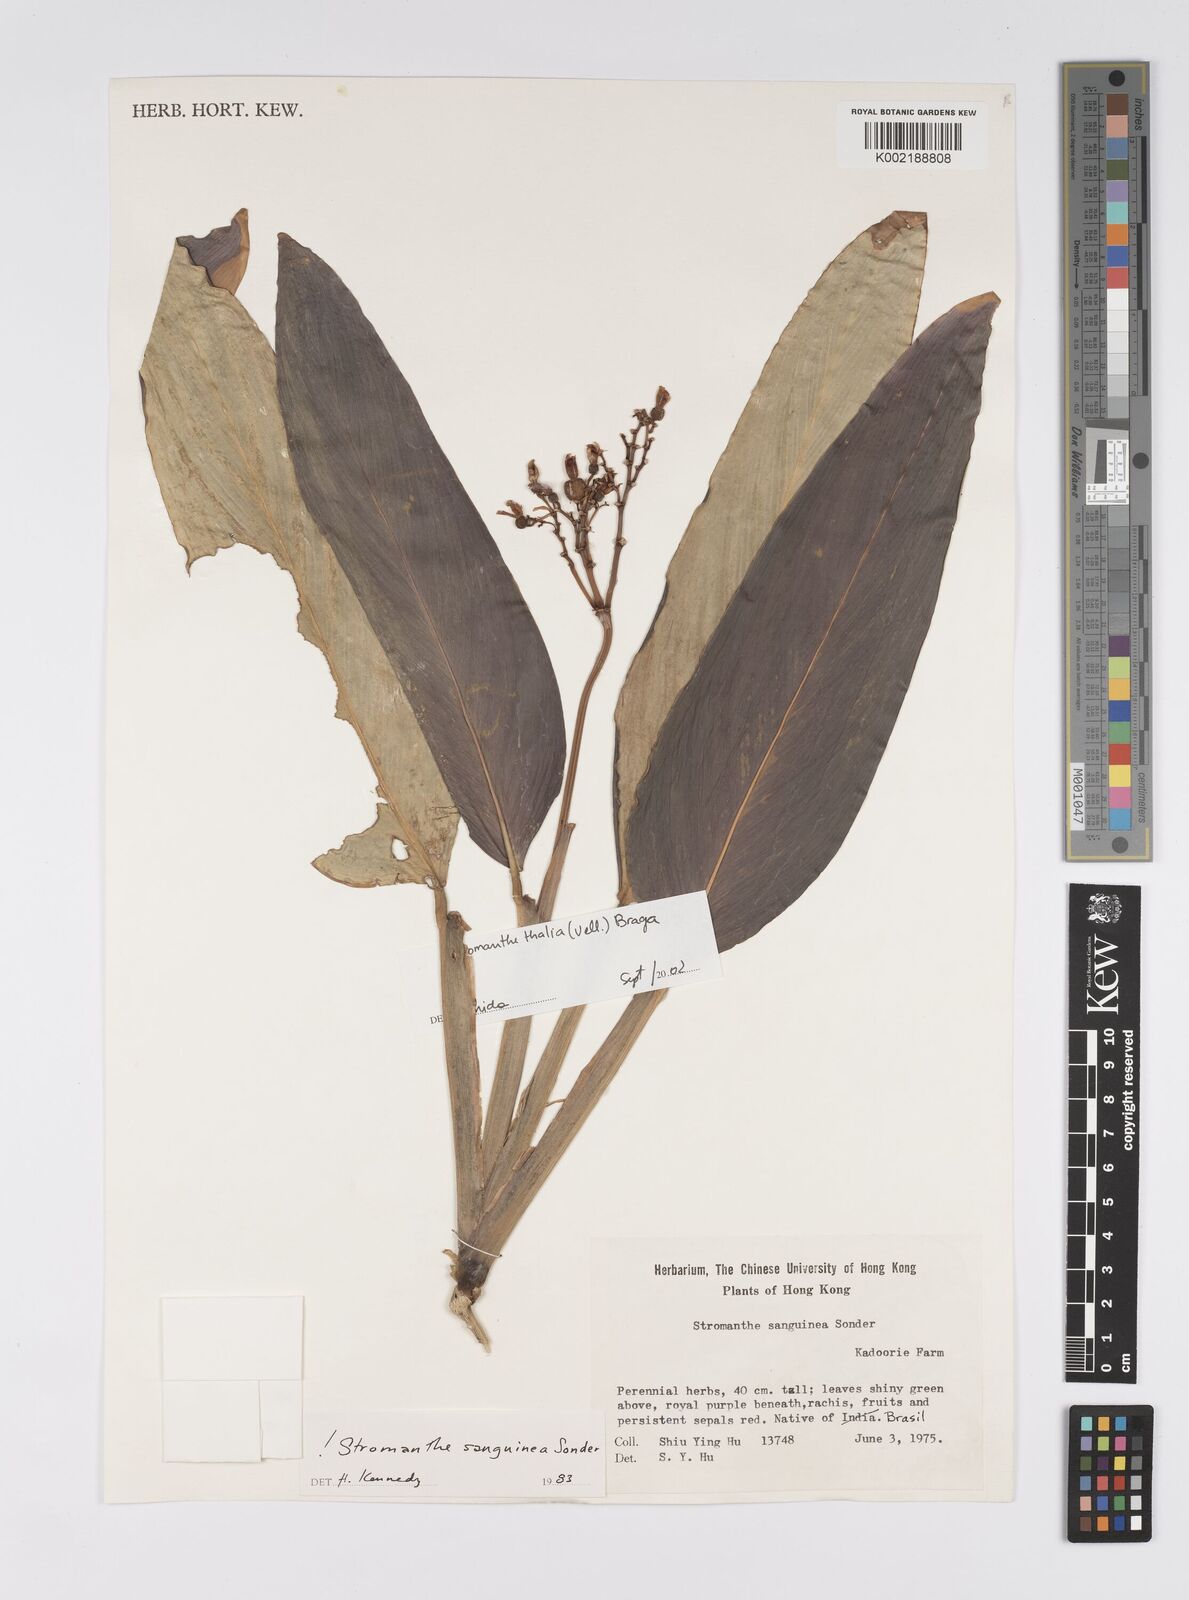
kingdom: Plantae
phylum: Tracheophyta
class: Liliopsida
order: Zingiberales
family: Marantaceae
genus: Stromanthe
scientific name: Stromanthe thalia
